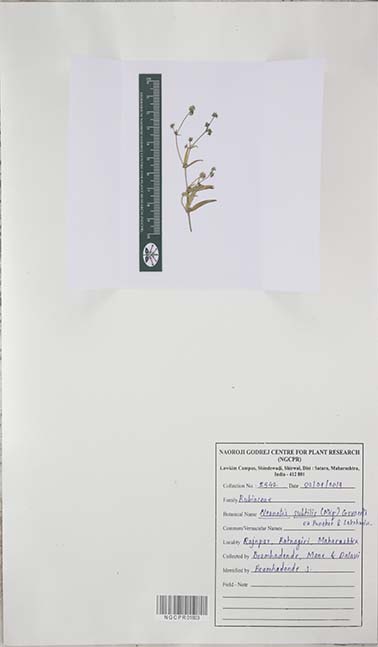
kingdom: Plantae
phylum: Tracheophyta
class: Magnoliopsida
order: Gentianales
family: Rubiaceae
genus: Neanotis
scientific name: Neanotis subtilis
